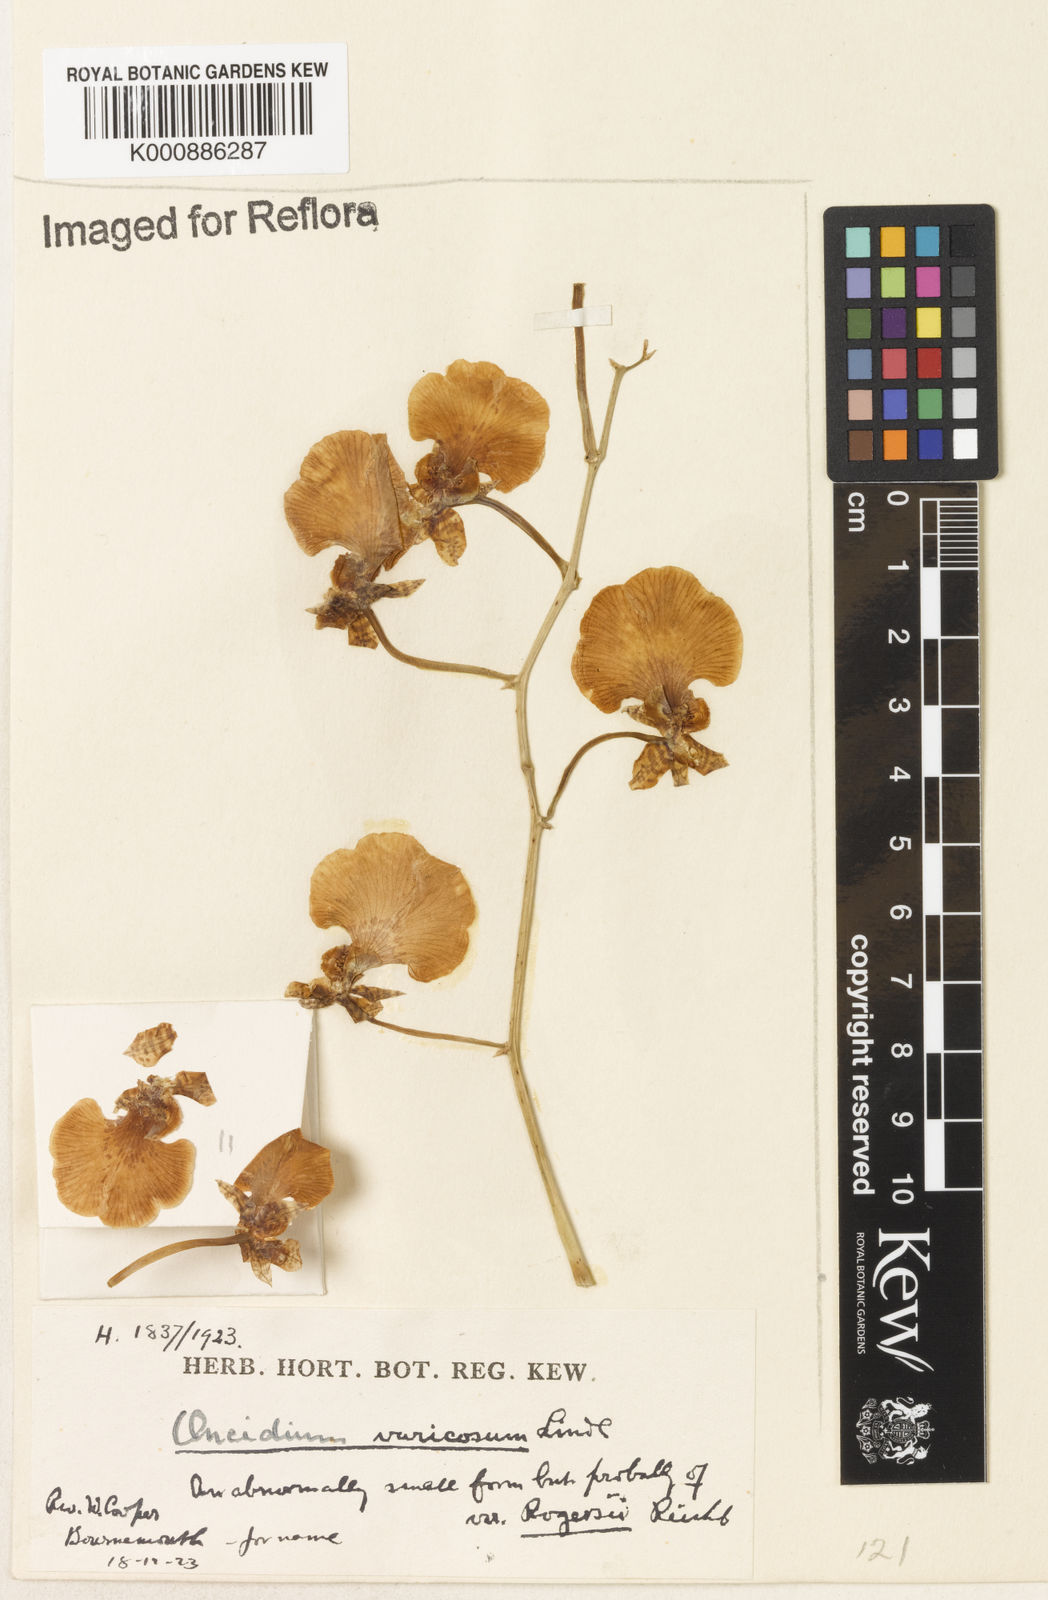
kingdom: Plantae
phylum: Tracheophyta
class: Liliopsida
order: Asparagales
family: Orchidaceae
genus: Gomesa
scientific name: Gomesa varicosa
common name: Dancing ladies
